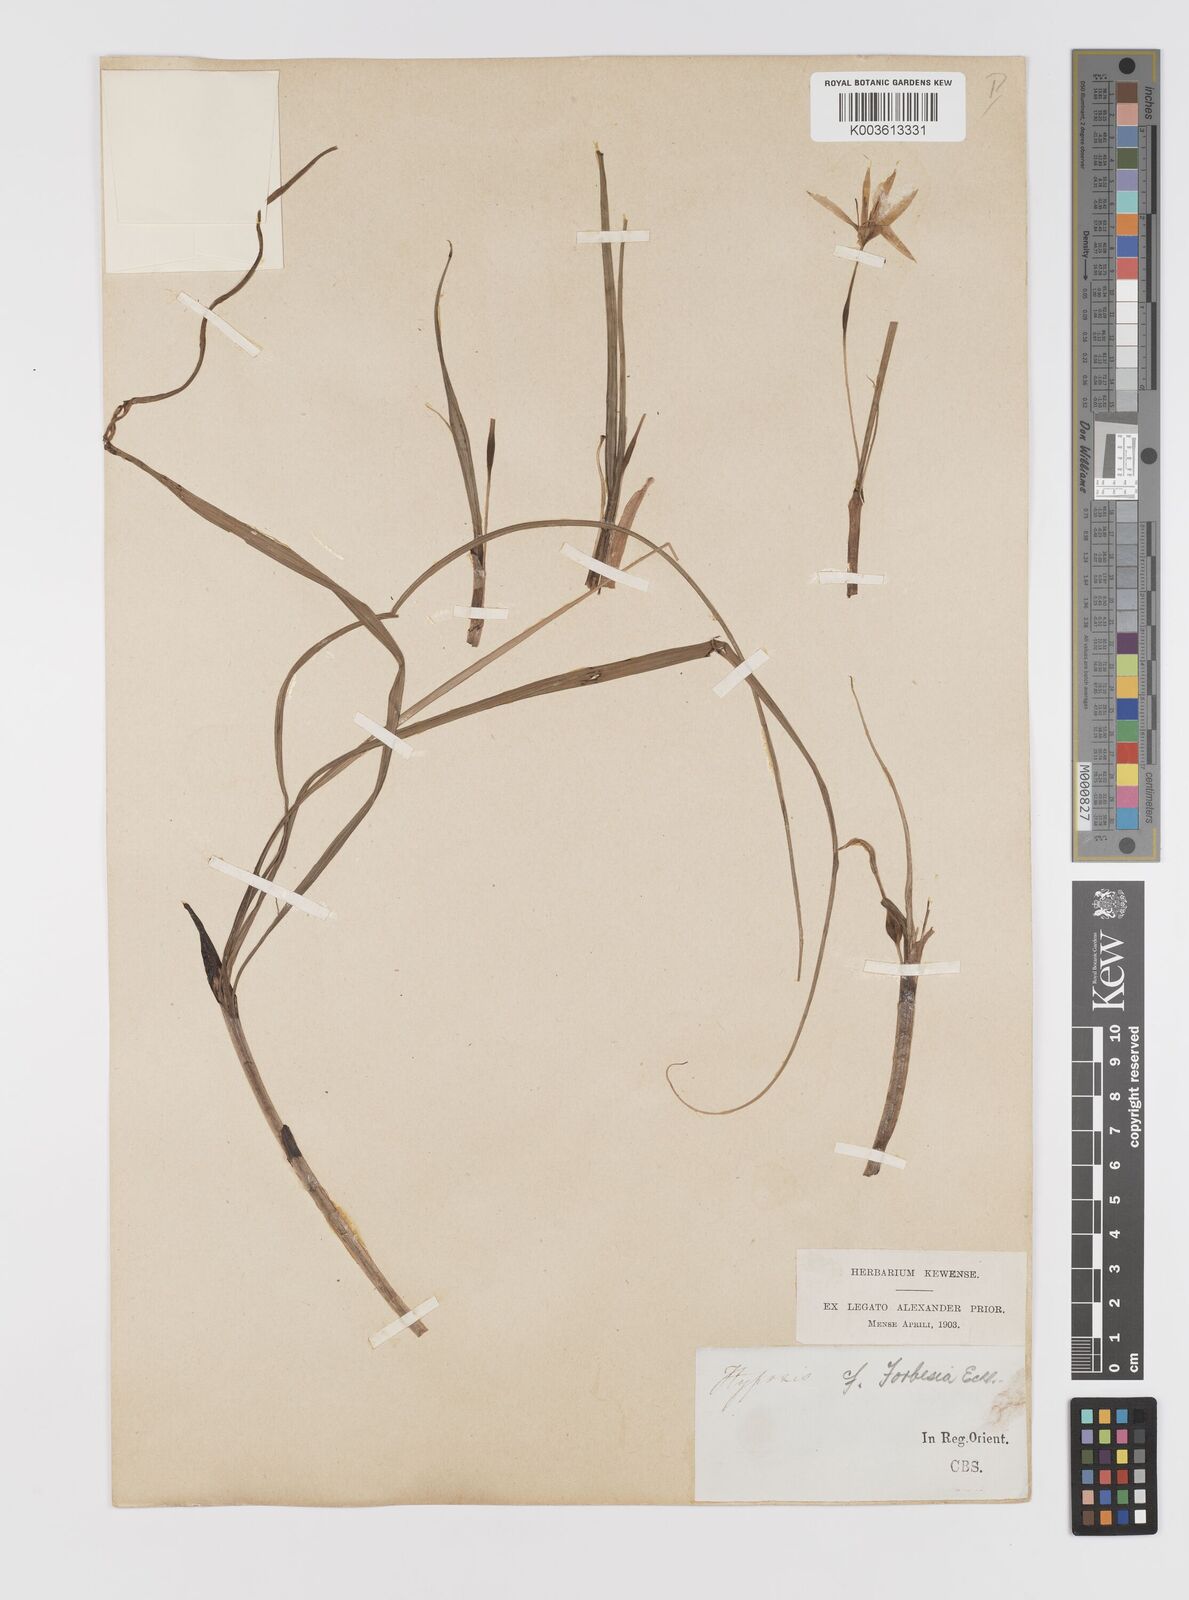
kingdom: Plantae
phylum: Tracheophyta
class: Liliopsida
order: Asparagales
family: Hypoxidaceae
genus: Empodium
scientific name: Empodium elongatum
